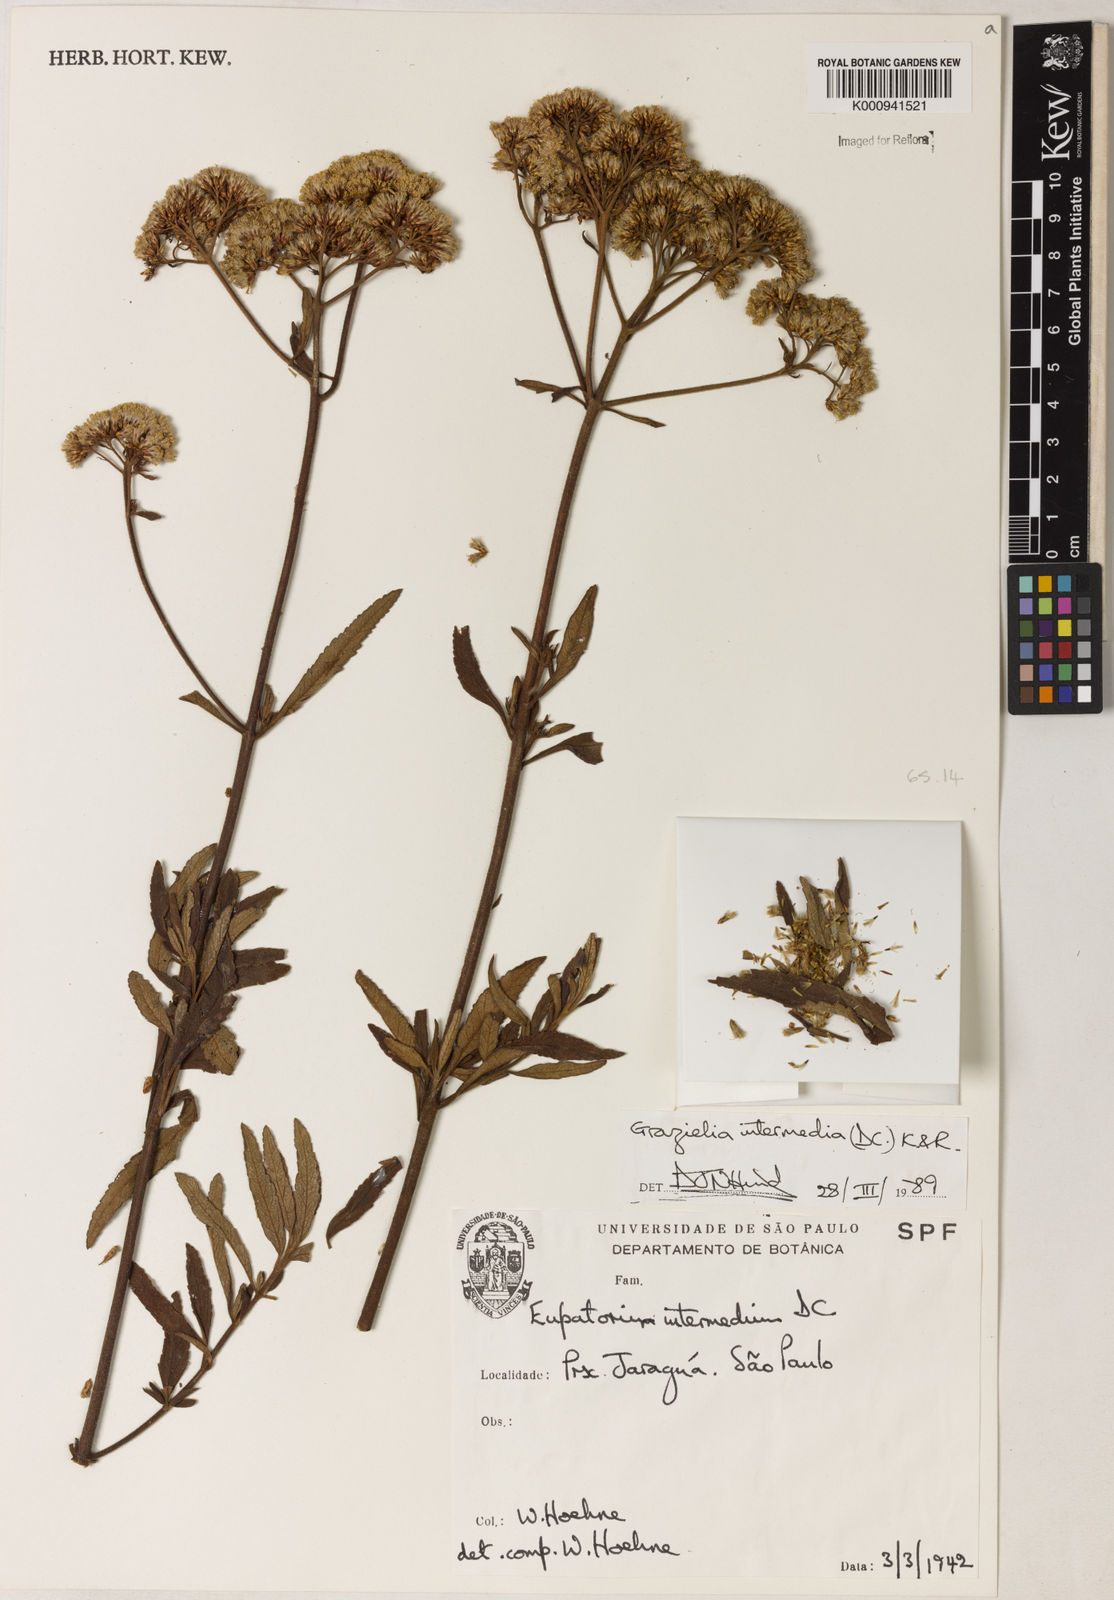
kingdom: Plantae
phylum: Tracheophyta
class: Magnoliopsida
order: Asterales
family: Asteraceae
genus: Grazielia
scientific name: Grazielia intermedia
